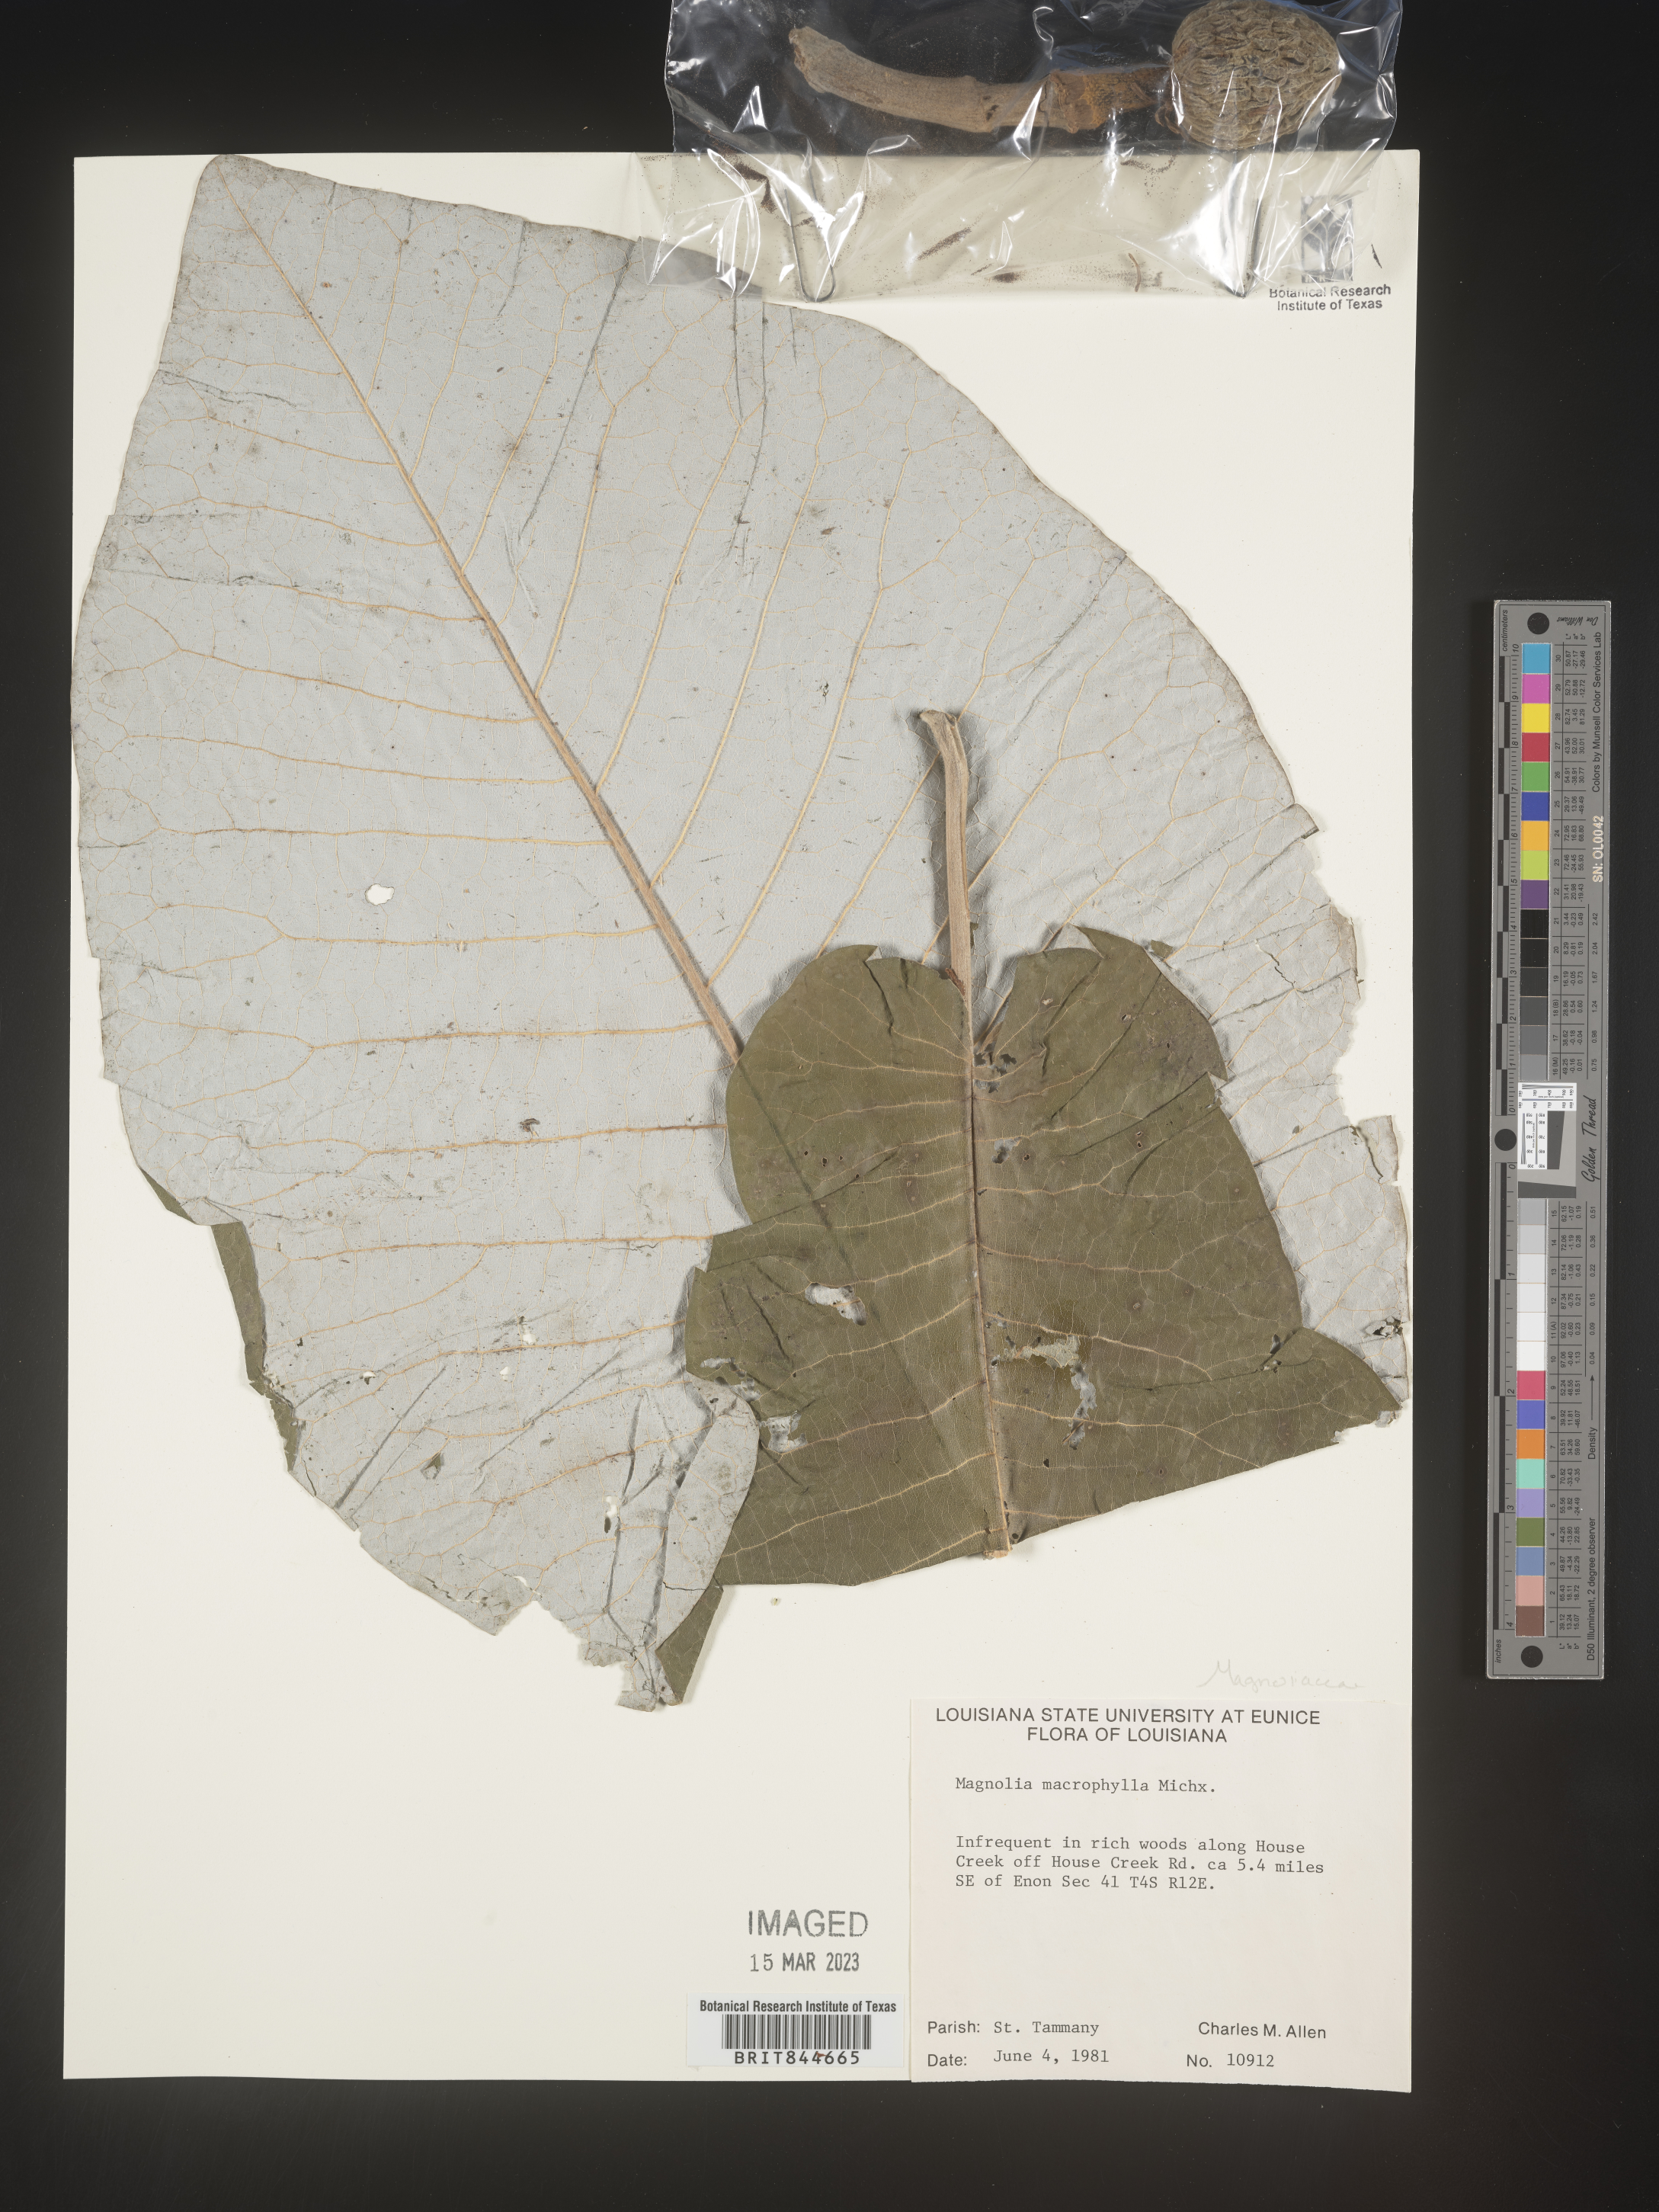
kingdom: Plantae
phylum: Tracheophyta
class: Magnoliopsida
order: Magnoliales
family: Magnoliaceae
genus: Magnolia
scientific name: Magnolia macrophylla
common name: Big-leaf magnolia
